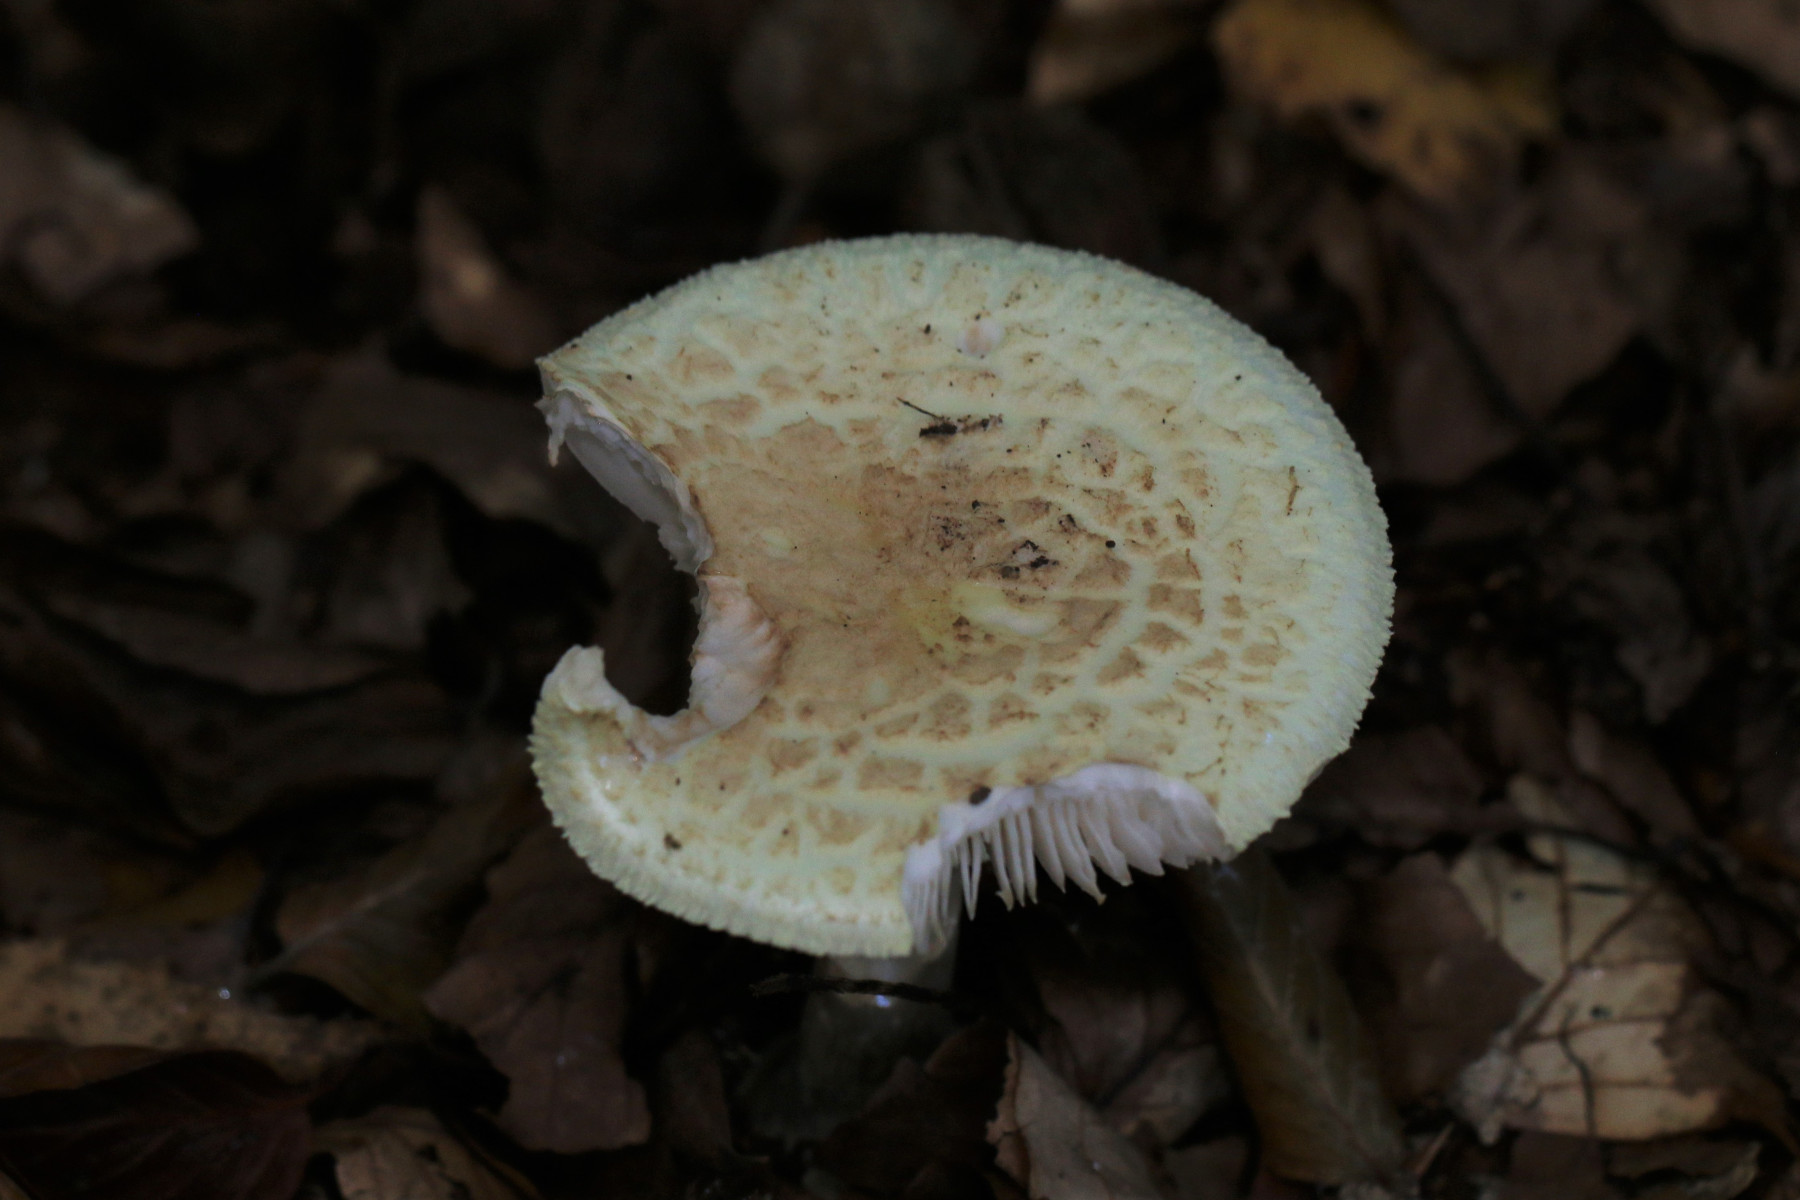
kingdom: Fungi
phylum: Basidiomycota
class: Agaricomycetes
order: Agaricales
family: Amanitaceae
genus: Amanita
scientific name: Amanita citrina
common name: kugleknoldet fluesvamp
